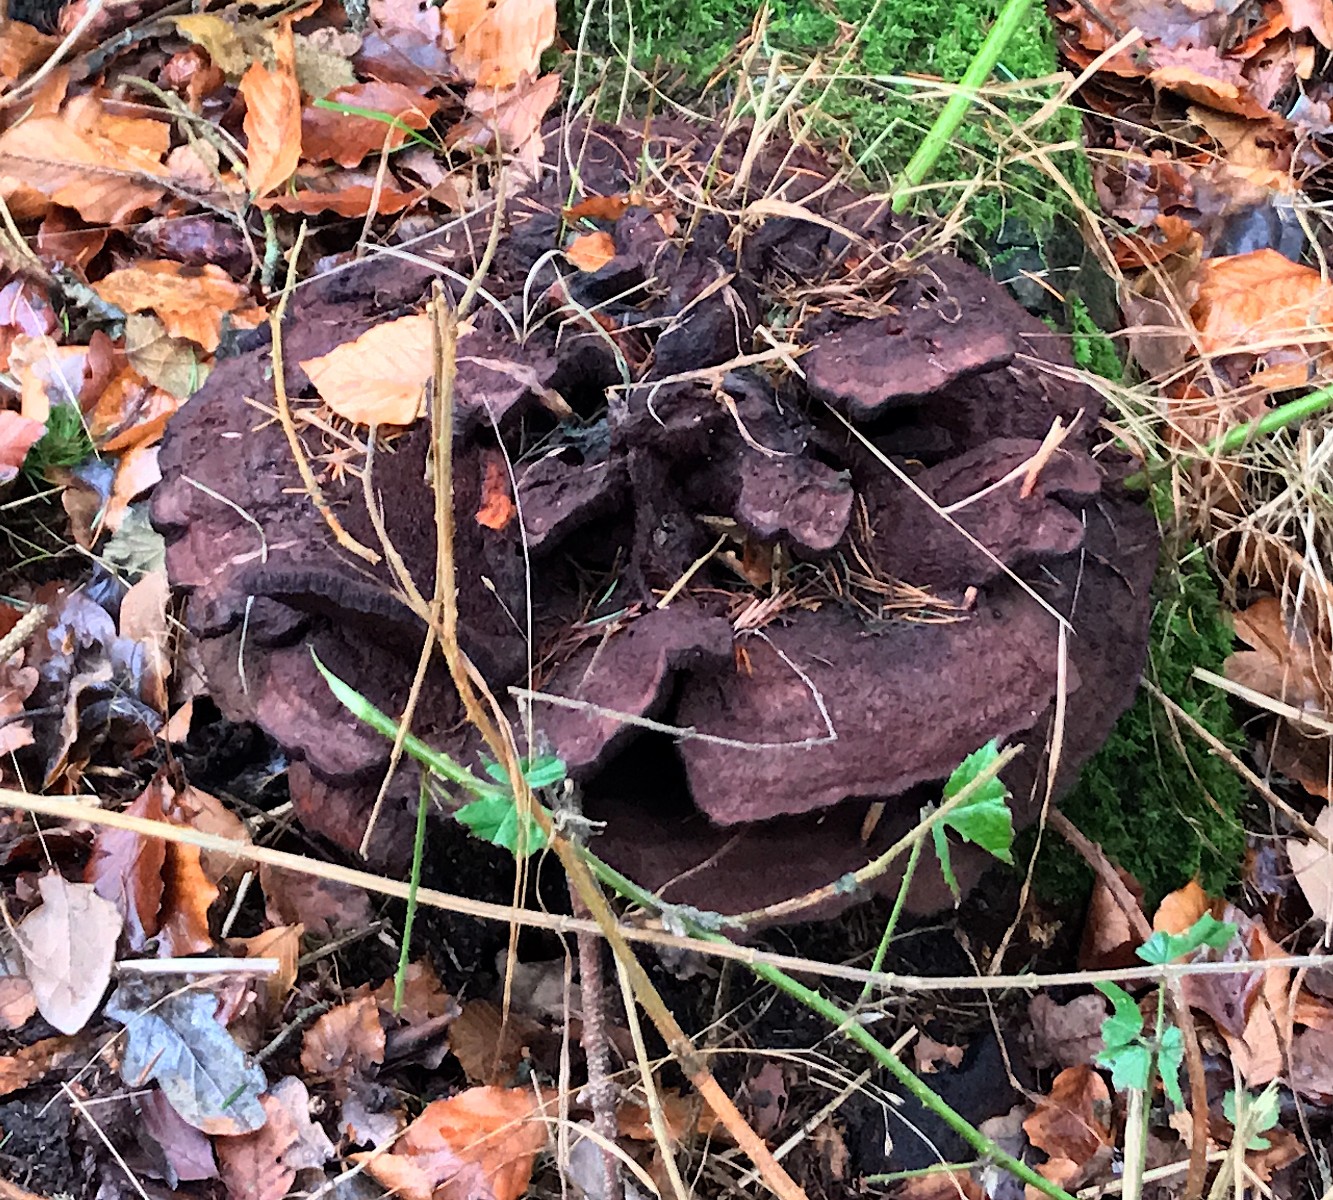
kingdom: Fungi
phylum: Basidiomycota
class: Agaricomycetes
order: Polyporales
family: Laetiporaceae
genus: Phaeolus
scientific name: Phaeolus schweinitzii
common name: brunporesvamp
